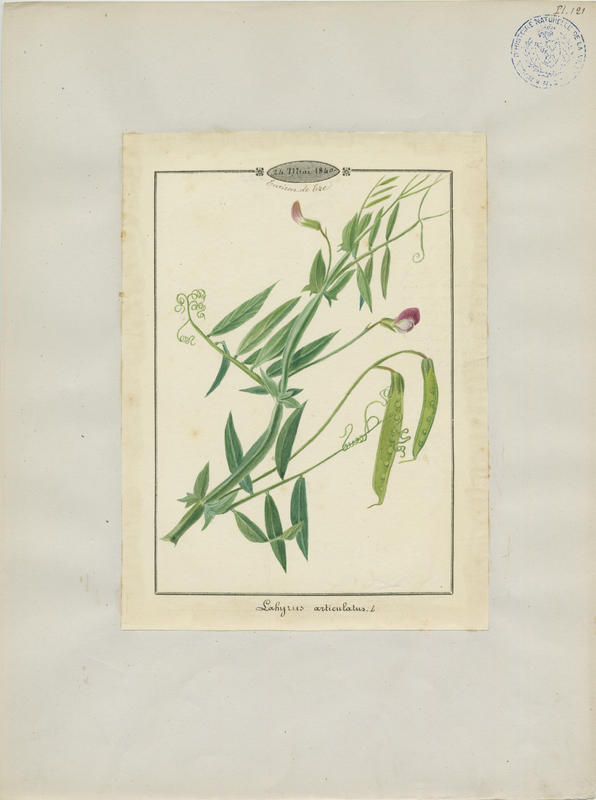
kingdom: Plantae
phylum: Tracheophyta
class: Magnoliopsida
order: Fabales
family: Fabaceae
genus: Lathyrus
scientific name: Lathyrus articulatus
